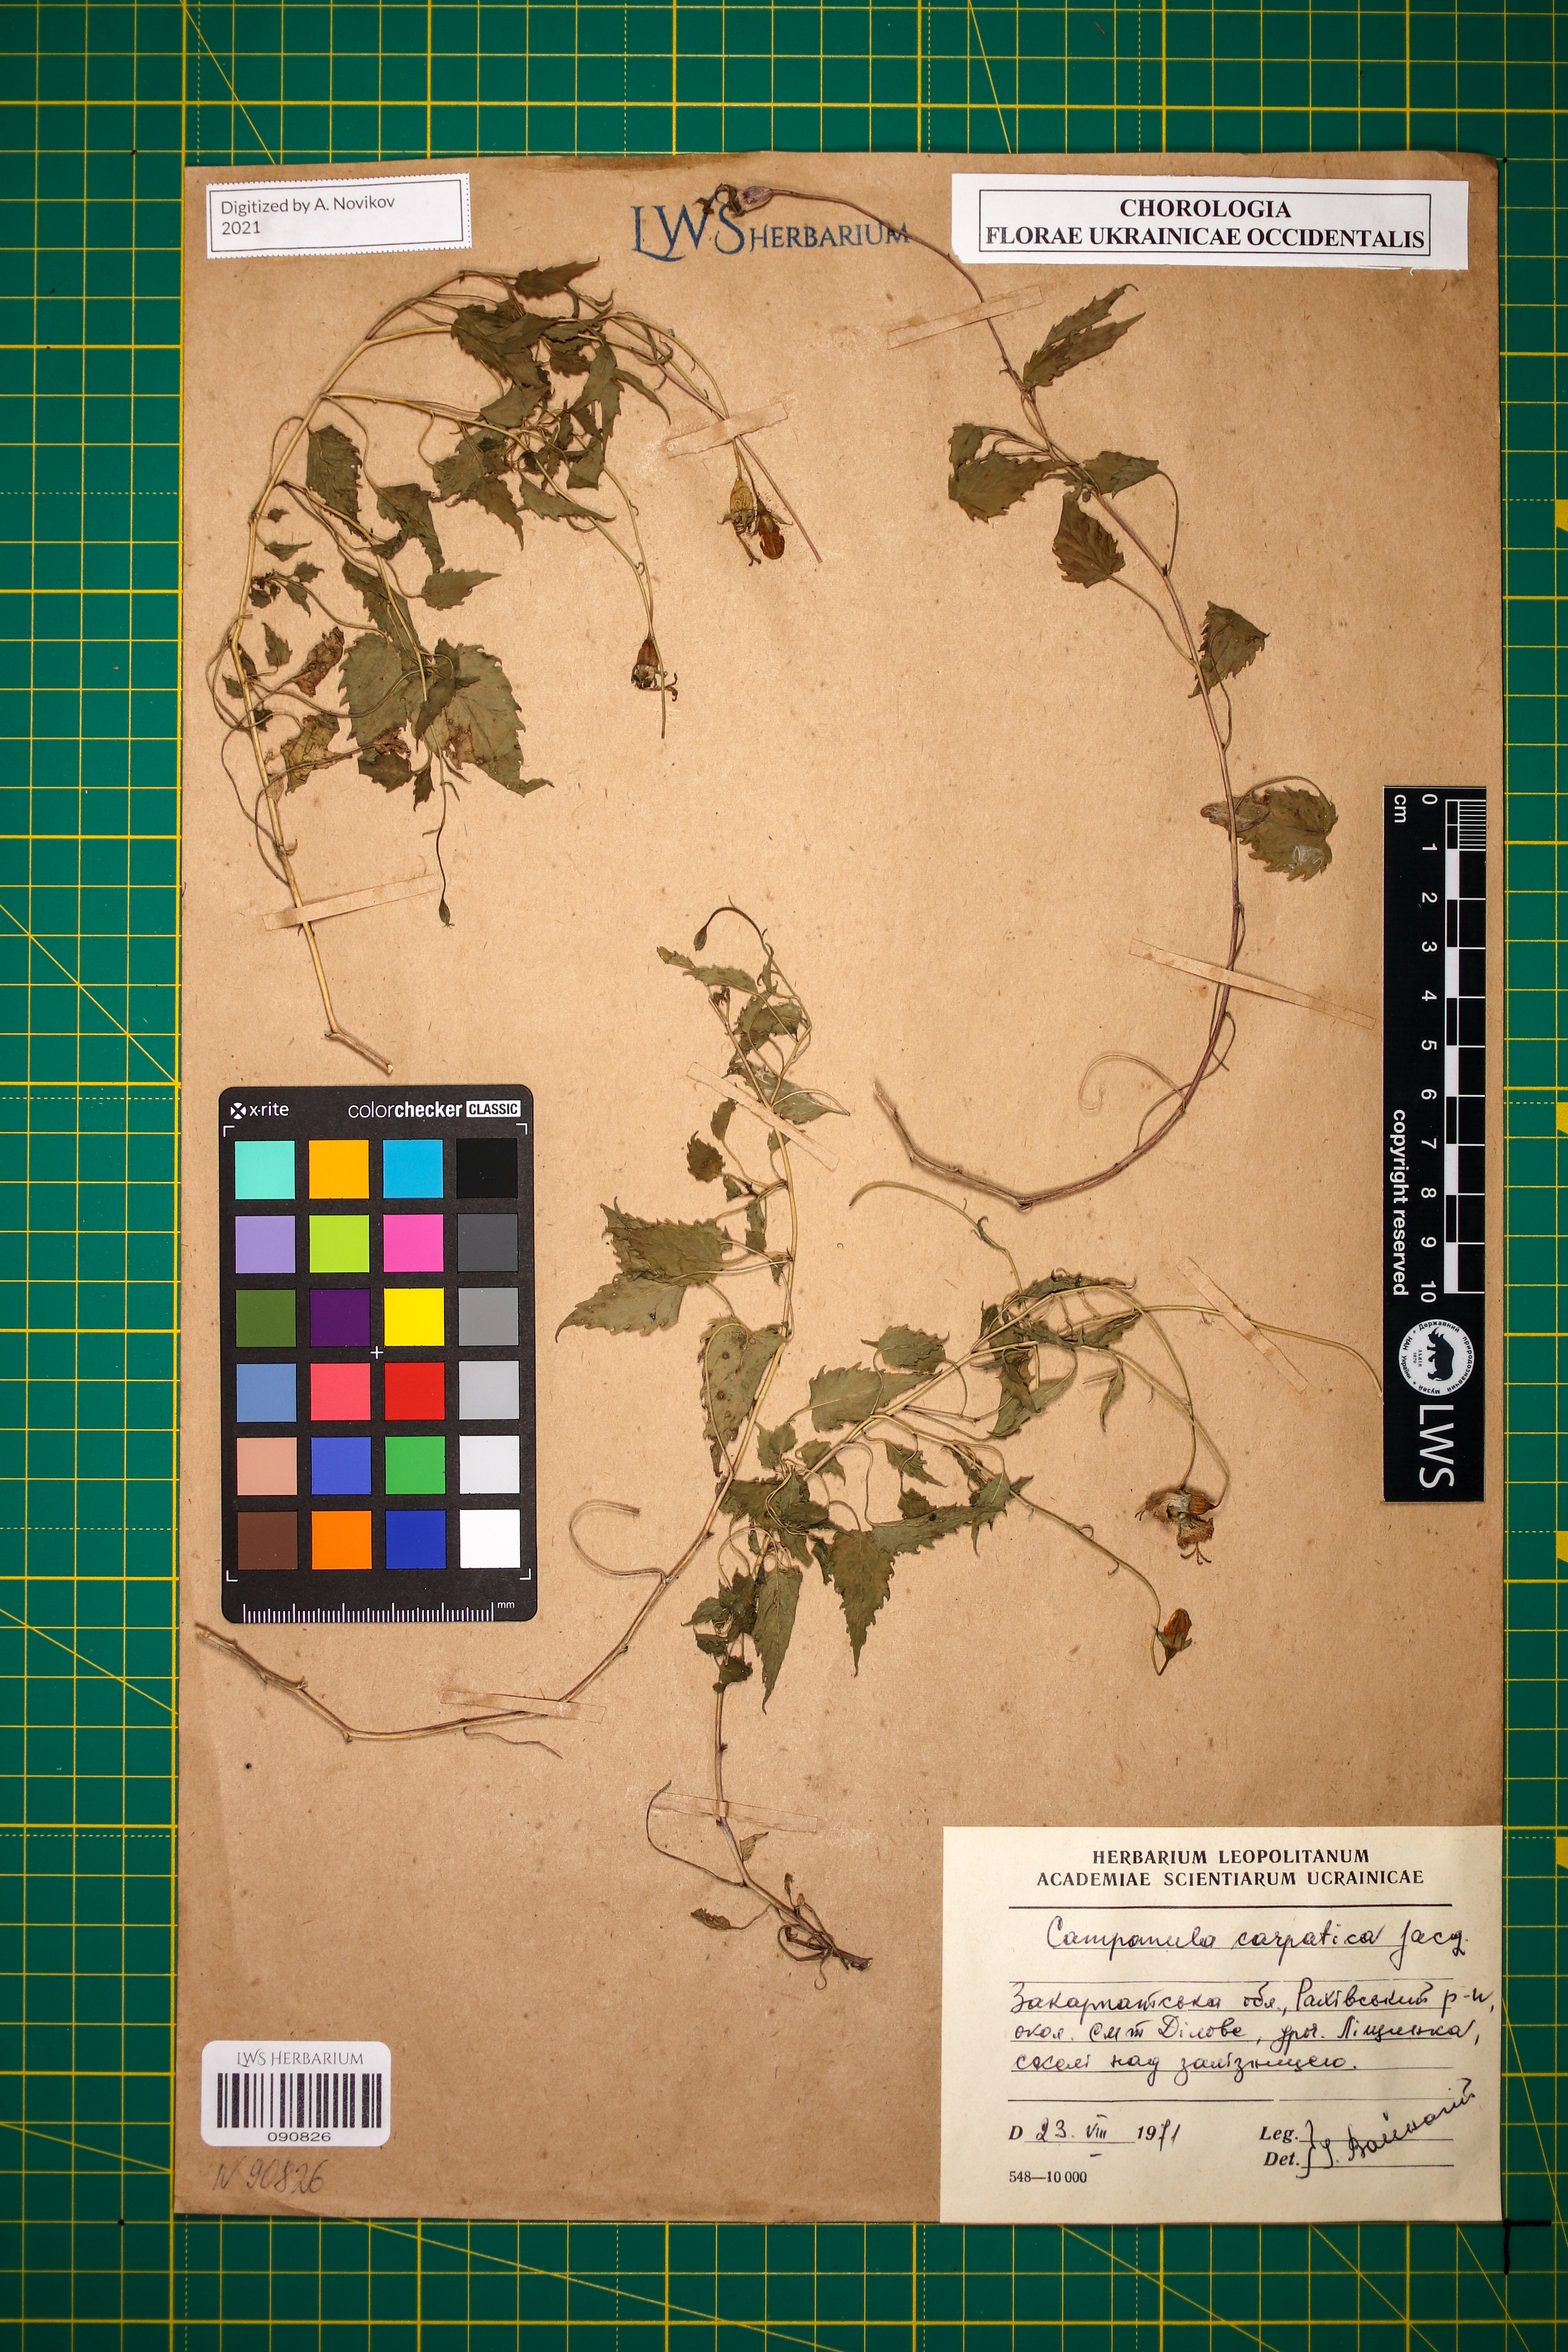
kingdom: Plantae
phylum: Tracheophyta
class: Magnoliopsida
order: Asterales
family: Campanulaceae
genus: Campanula
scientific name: Campanula carpatica
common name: Tussock bellflower
